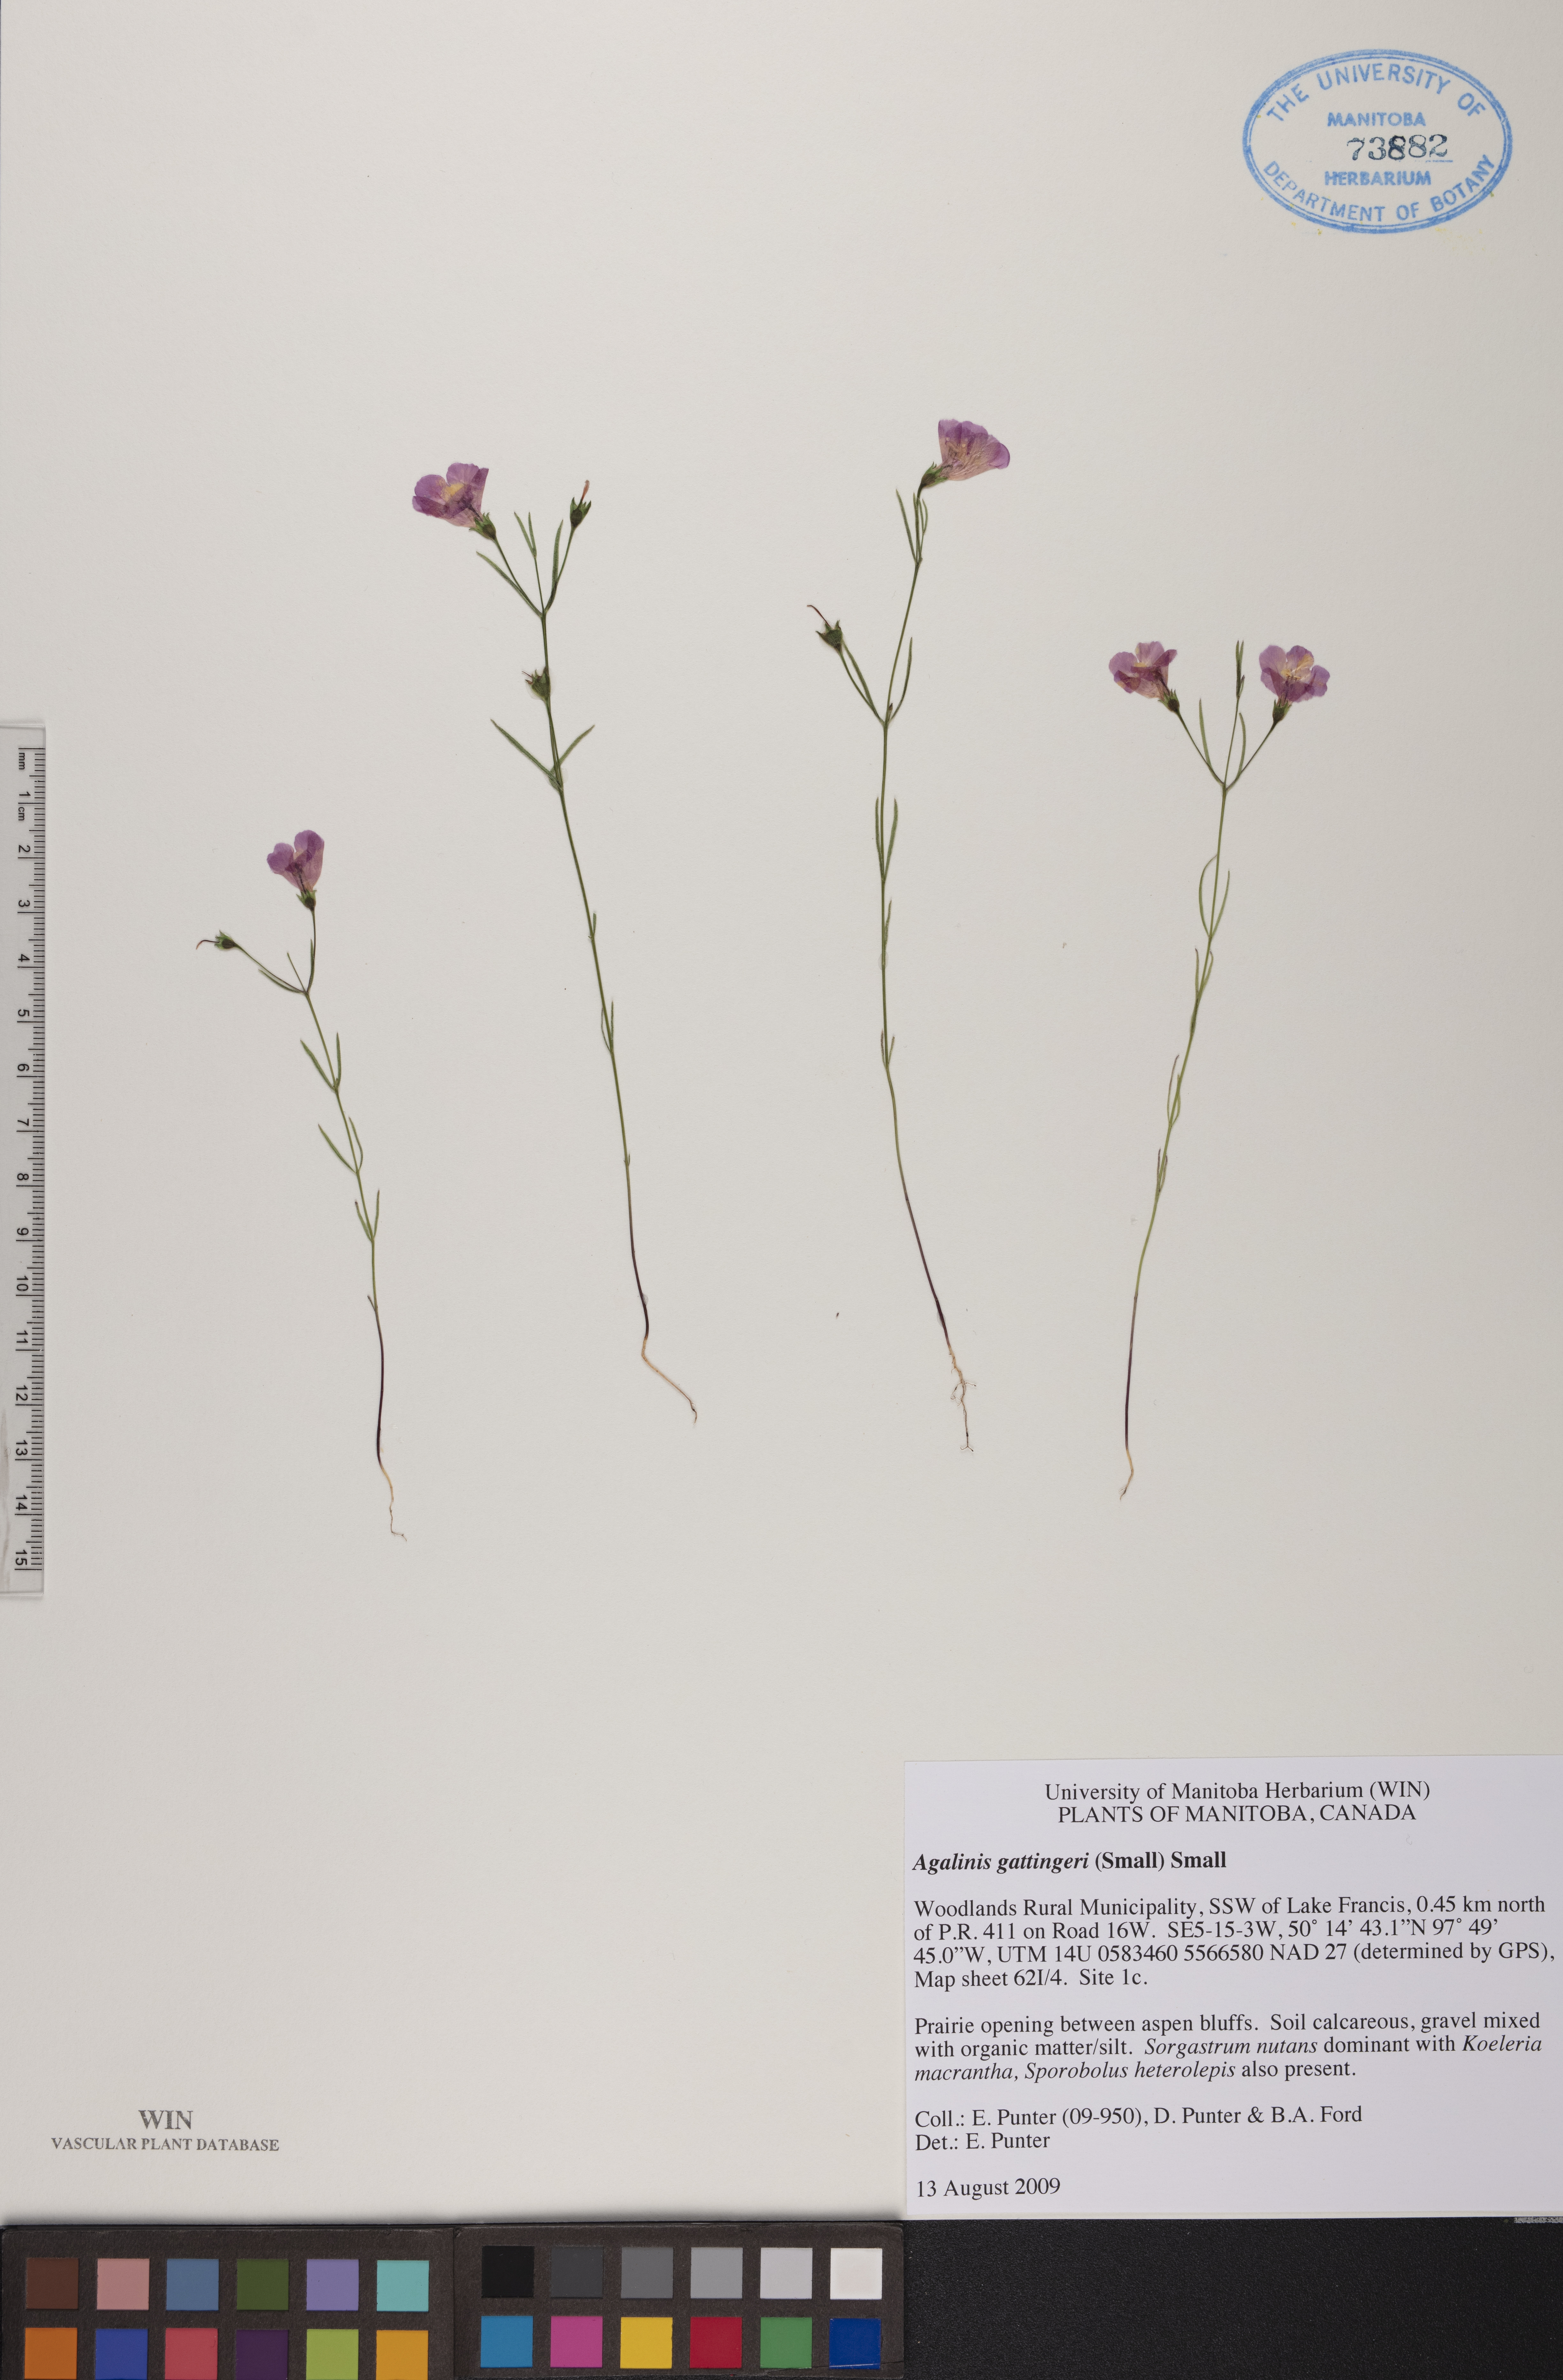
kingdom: Plantae
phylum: Tracheophyta
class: Magnoliopsida
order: Lamiales
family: Orobanchaceae
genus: Agalinis
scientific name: Agalinis gattingeri
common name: Gattinger's agalinis
